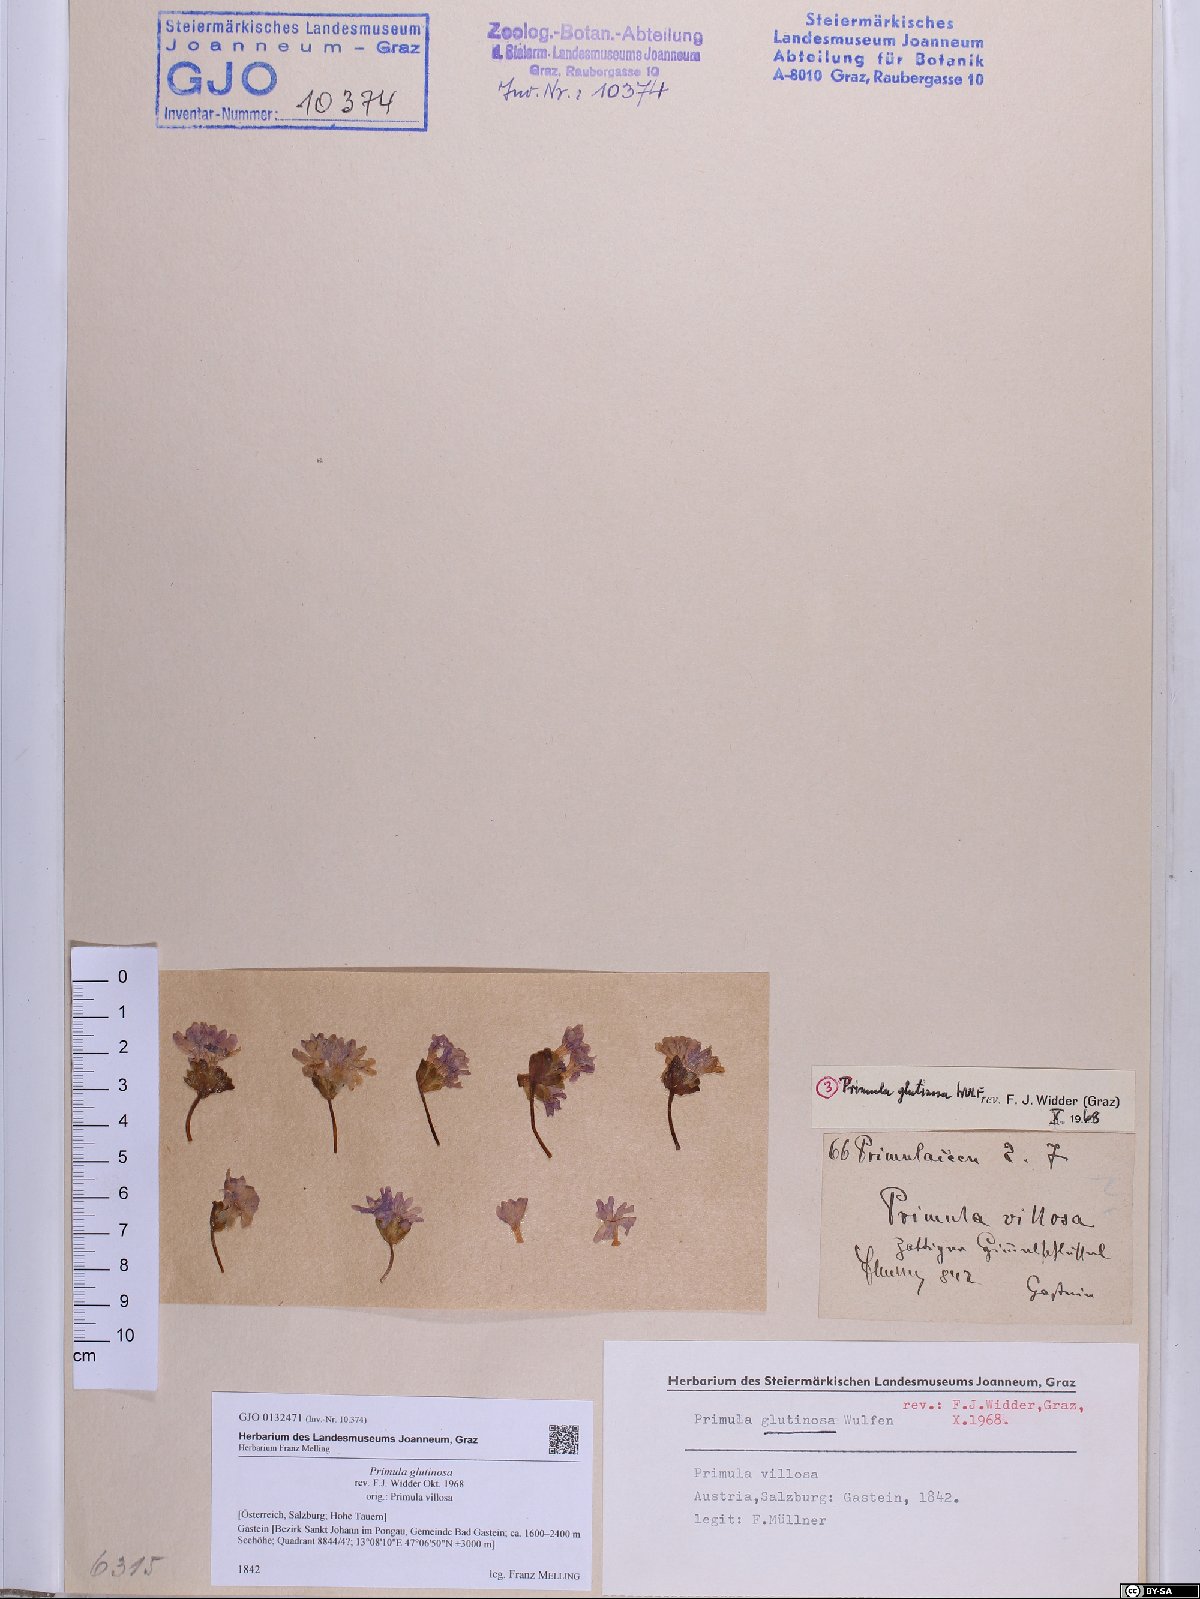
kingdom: Plantae
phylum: Tracheophyta
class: Magnoliopsida
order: Ericales
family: Primulaceae
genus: Primula
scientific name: Primula glutinosa
